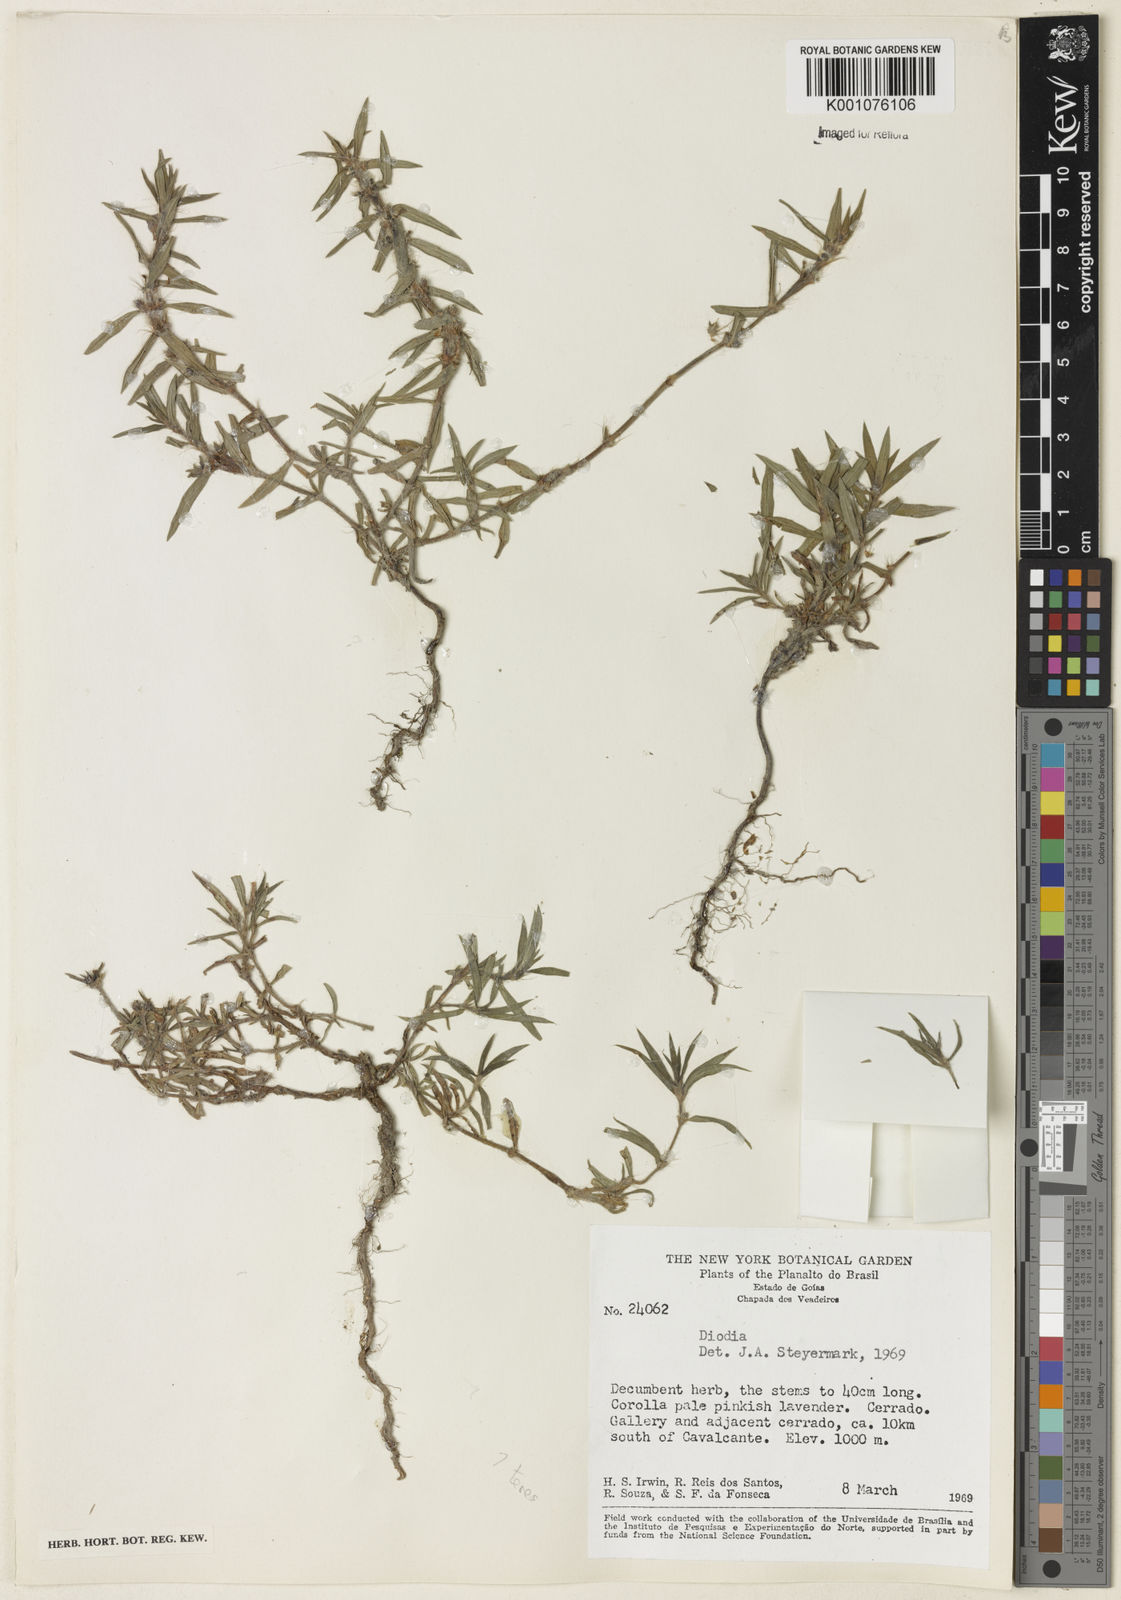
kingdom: Plantae
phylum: Tracheophyta
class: Magnoliopsida
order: Gentianales
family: Rubiaceae
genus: Hexasepalum
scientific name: Hexasepalum teres
